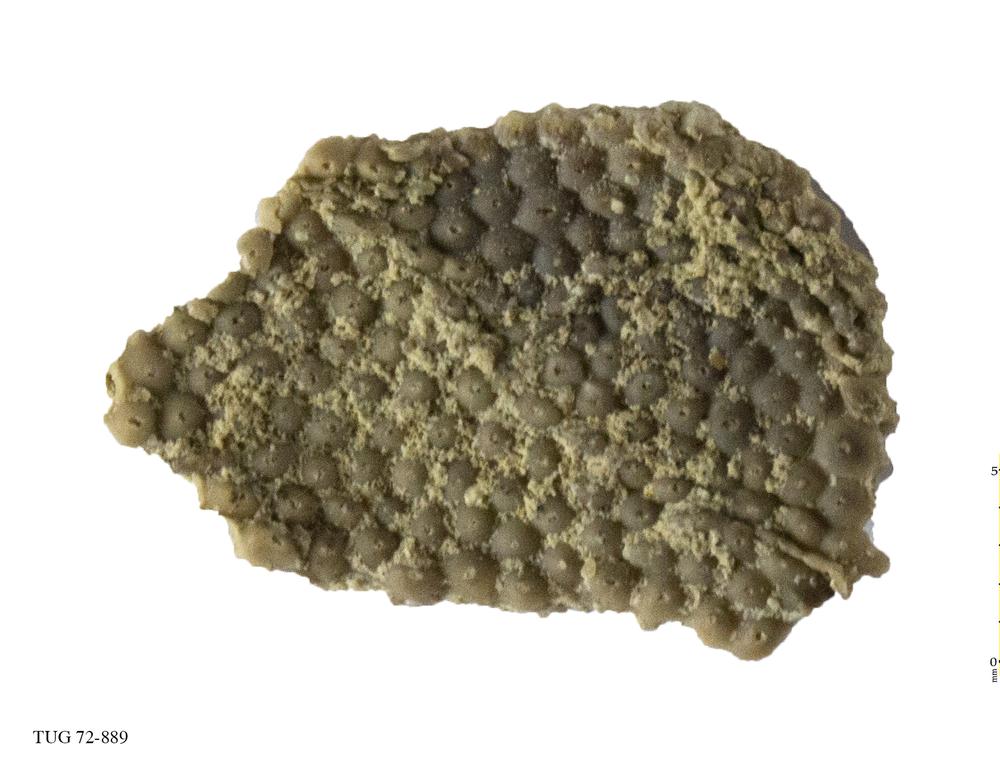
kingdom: Plantae
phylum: Chlorophyta
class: Ulvophyceae
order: Cyclocrinales
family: Cyclocrinaceae
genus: Mastopora
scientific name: Mastopora concava
